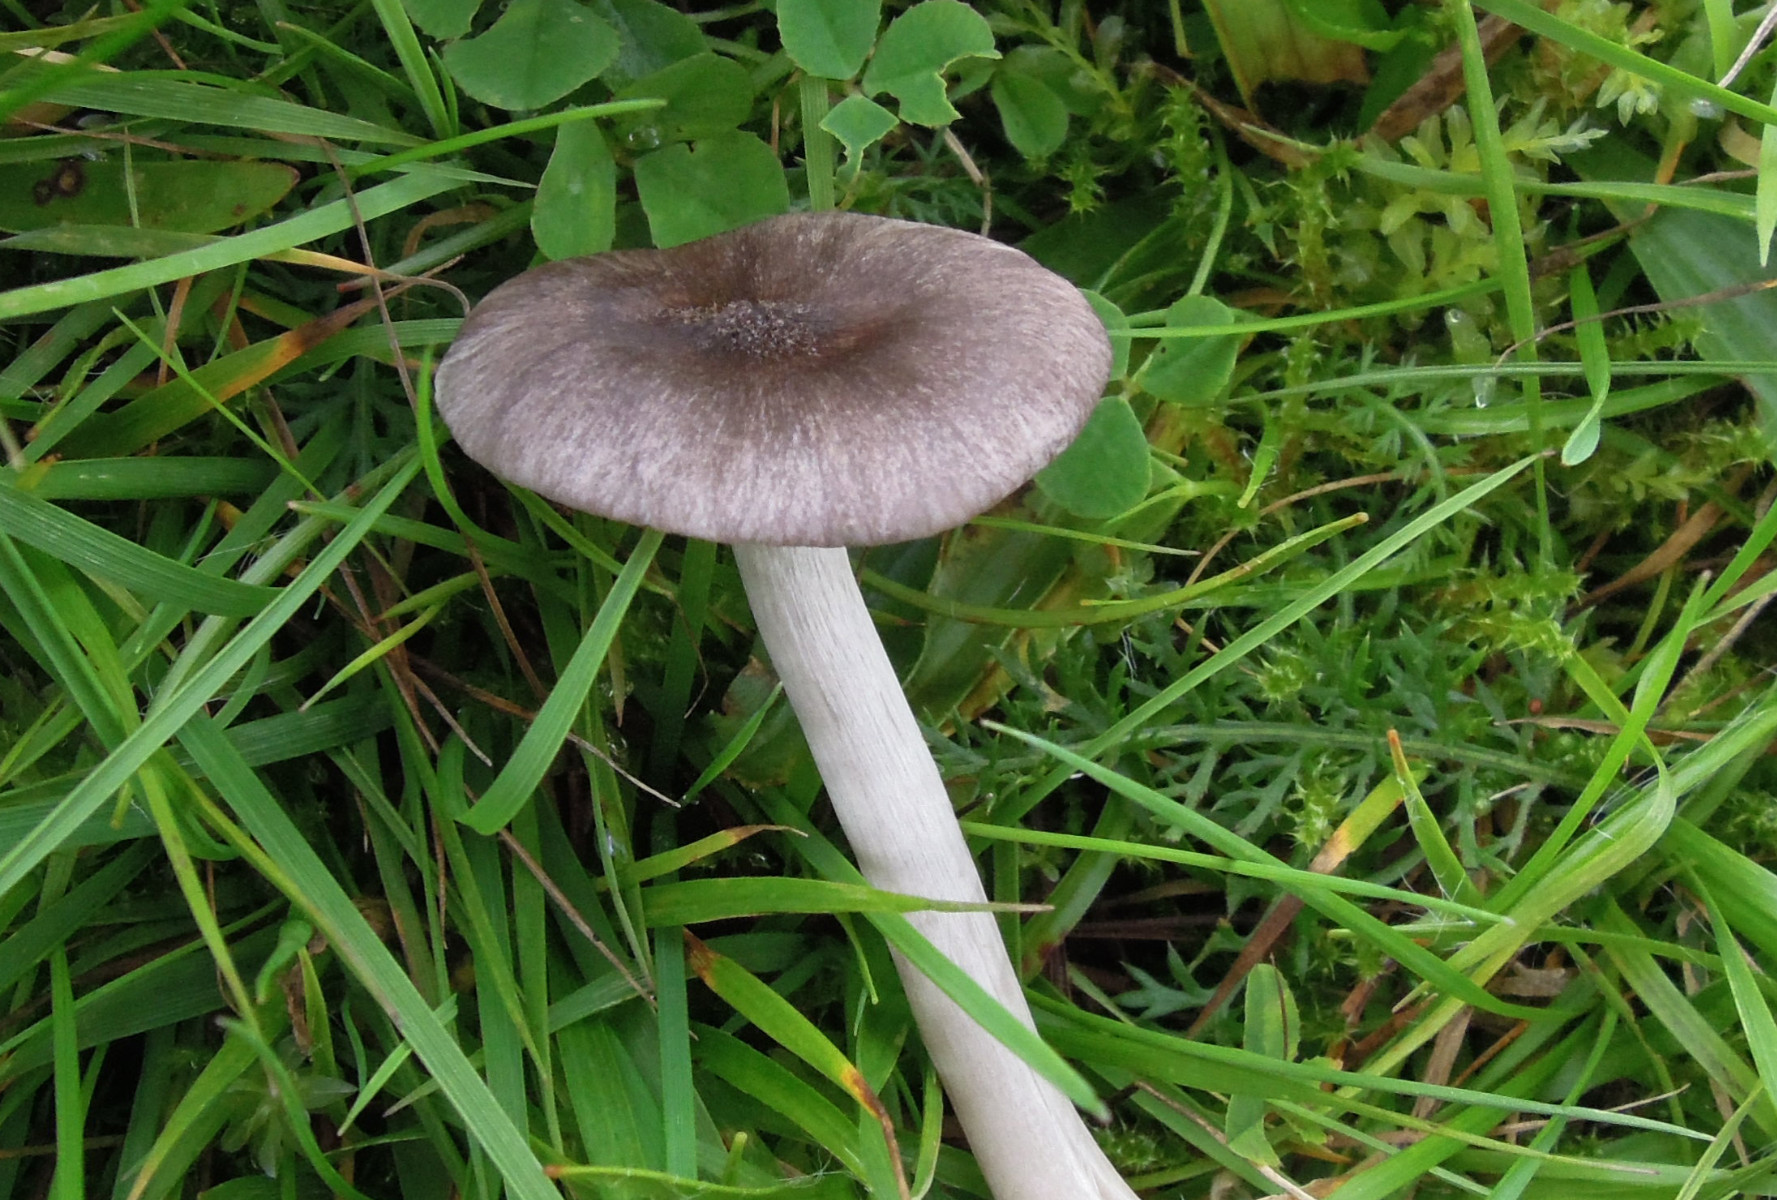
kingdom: Fungi
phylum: Basidiomycota
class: Agaricomycetes
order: Agaricales
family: Hygrophoraceae
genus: Cuphophyllus
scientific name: Cuphophyllus
